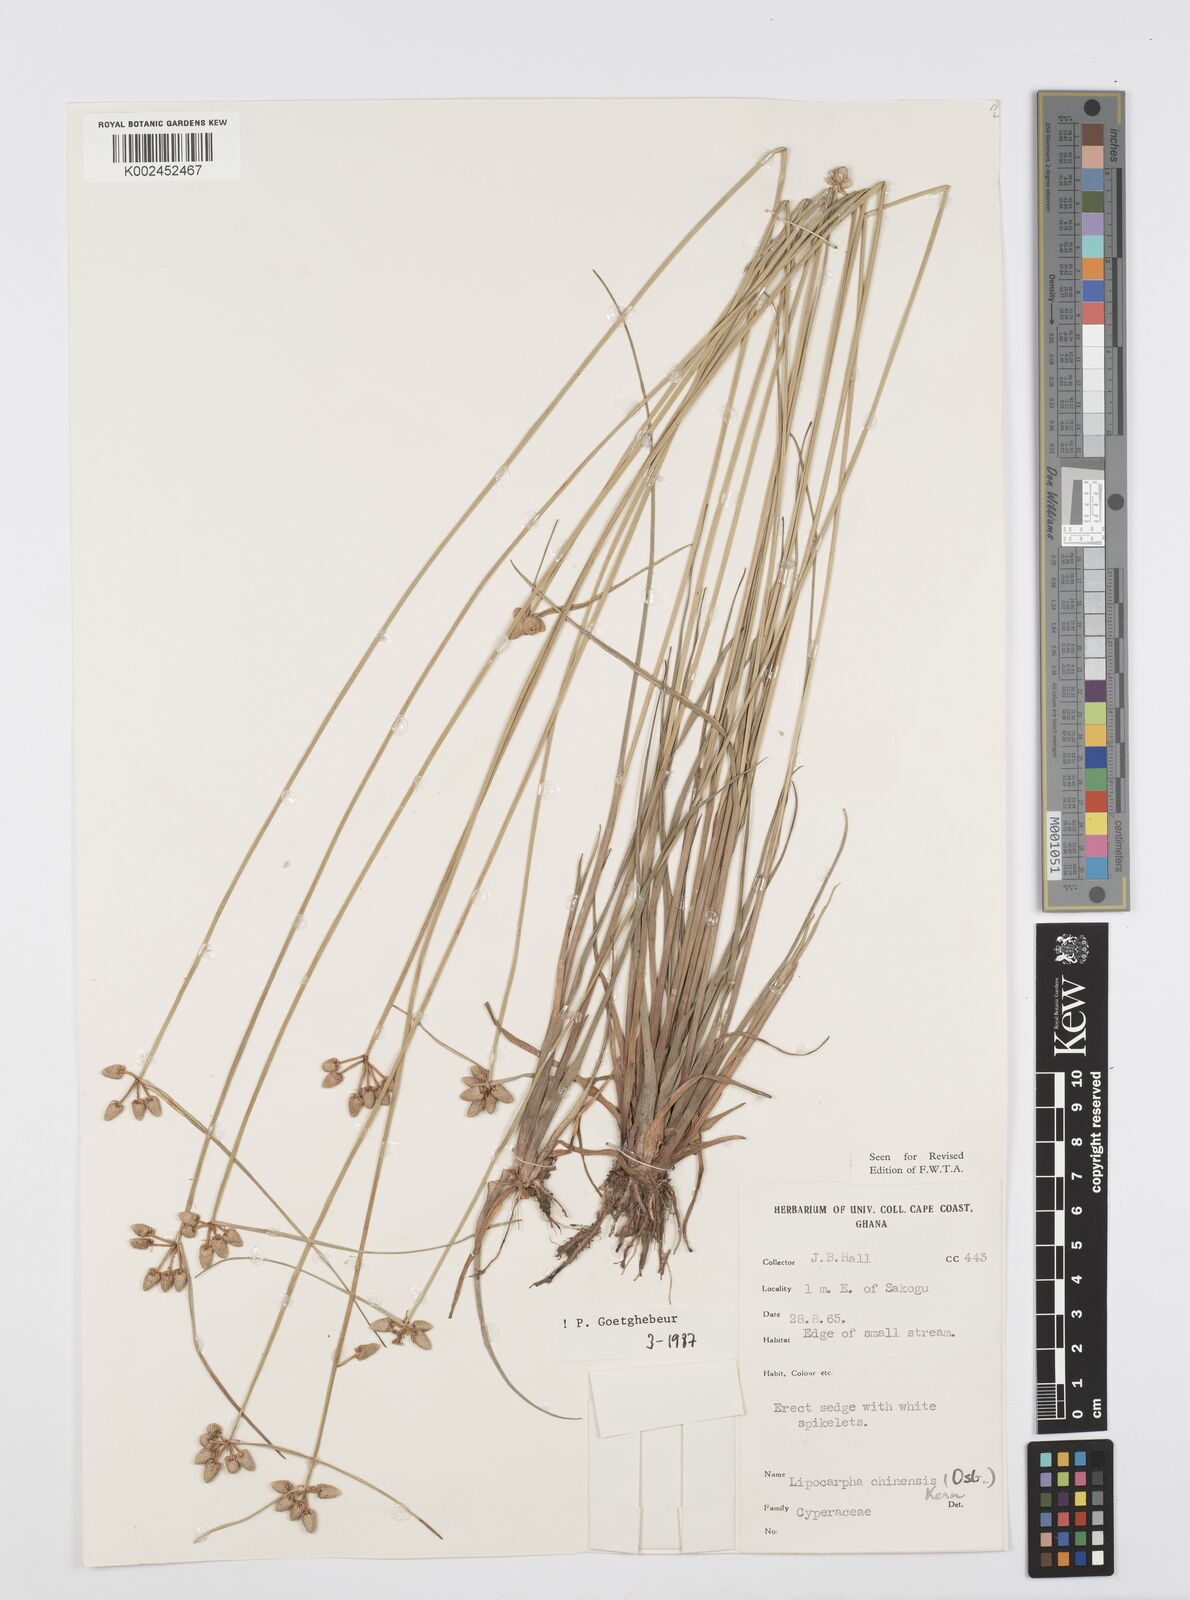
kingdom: Plantae
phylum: Tracheophyta
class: Liliopsida
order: Poales
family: Cyperaceae
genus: Cyperus
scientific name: Cyperus albescens
